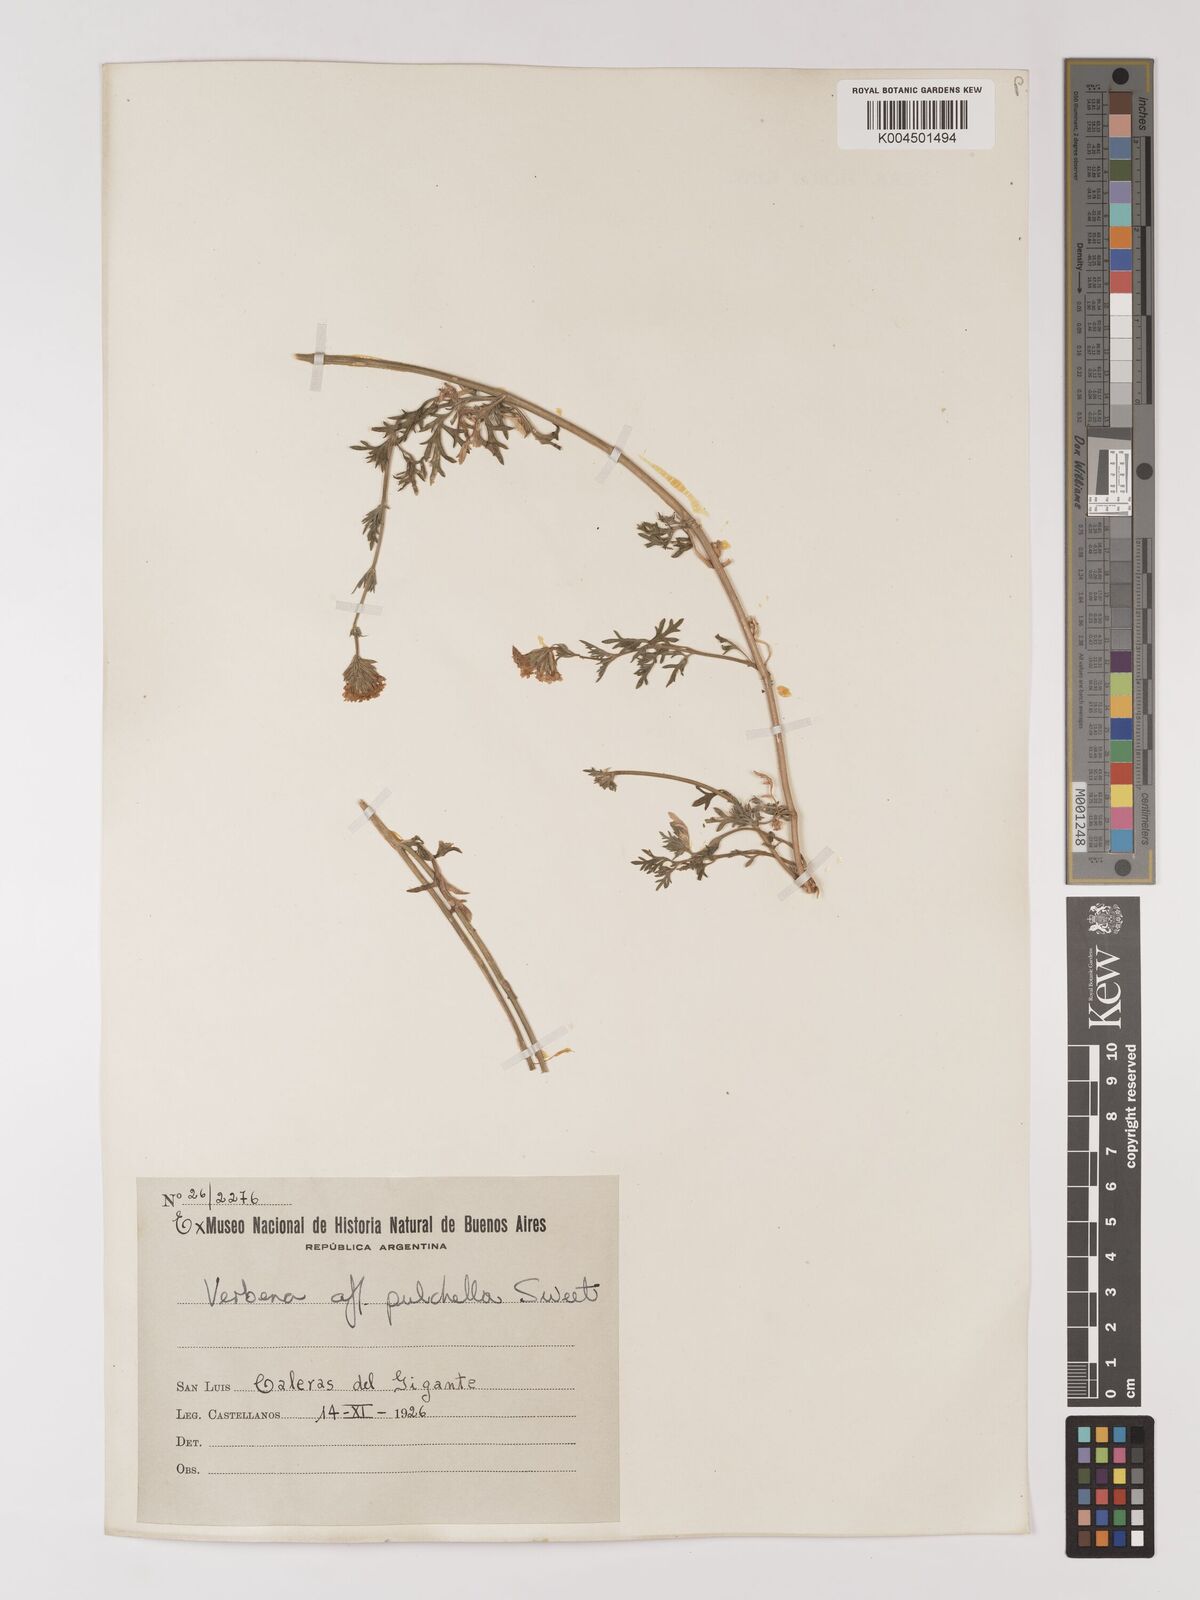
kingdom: Plantae
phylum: Tracheophyta
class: Magnoliopsida
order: Lamiales
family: Verbenaceae
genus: Verbena
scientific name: Verbena tenera
